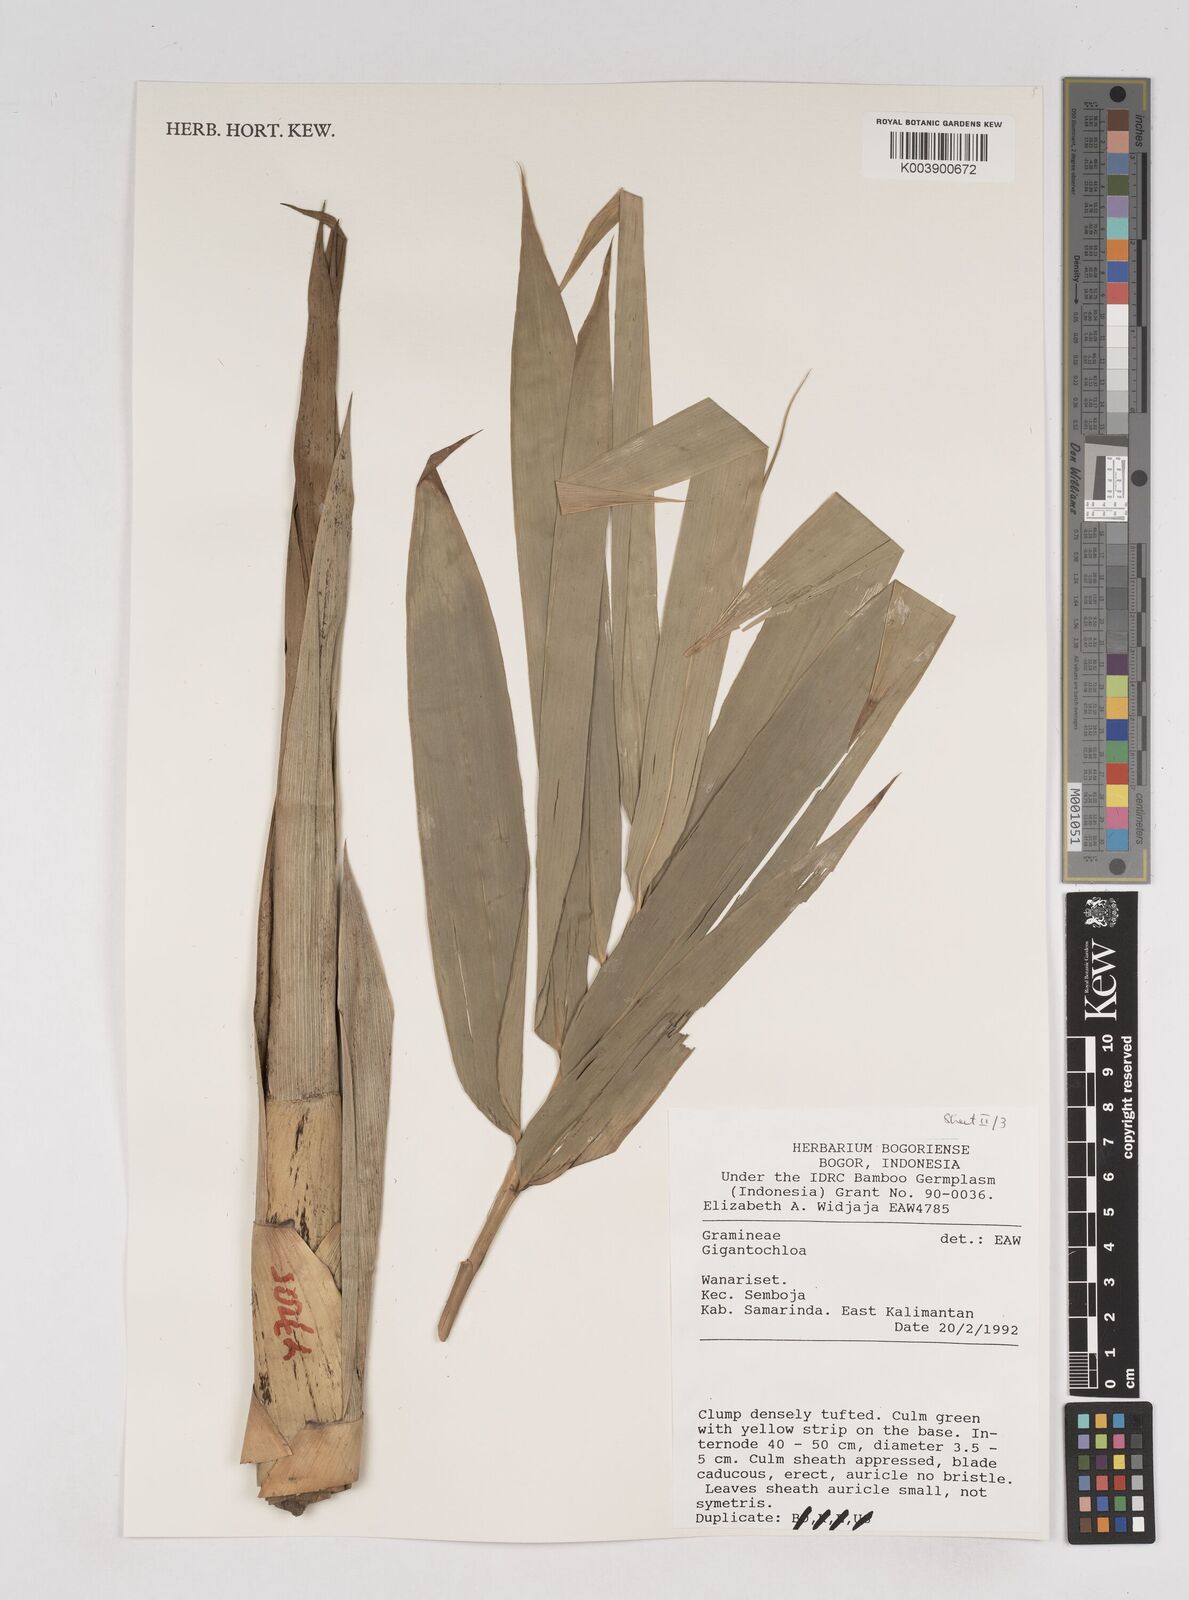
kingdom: Plantae
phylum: Tracheophyta
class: Liliopsida
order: Poales
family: Poaceae
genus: Gigantochloa
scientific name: Gigantochloa
